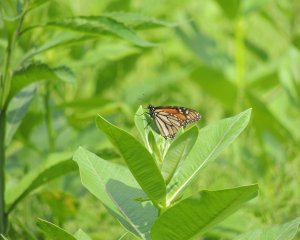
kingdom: Animalia
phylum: Arthropoda
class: Insecta
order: Lepidoptera
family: Nymphalidae
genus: Danaus
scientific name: Danaus plexippus
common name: Monarch
